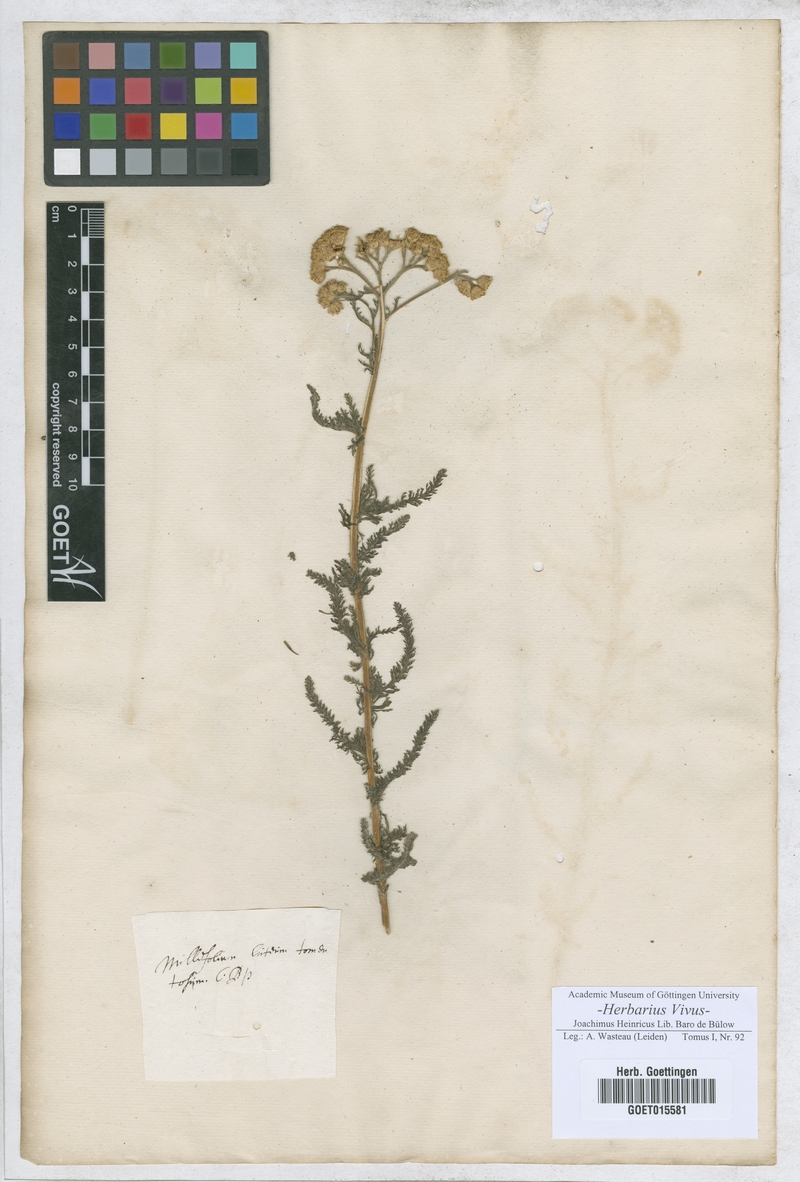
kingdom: Plantae
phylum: Tracheophyta
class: Magnoliopsida
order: Asterales
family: Asteraceae
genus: Achillea
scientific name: Achillea tomentosa
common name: Yellow milfoil
